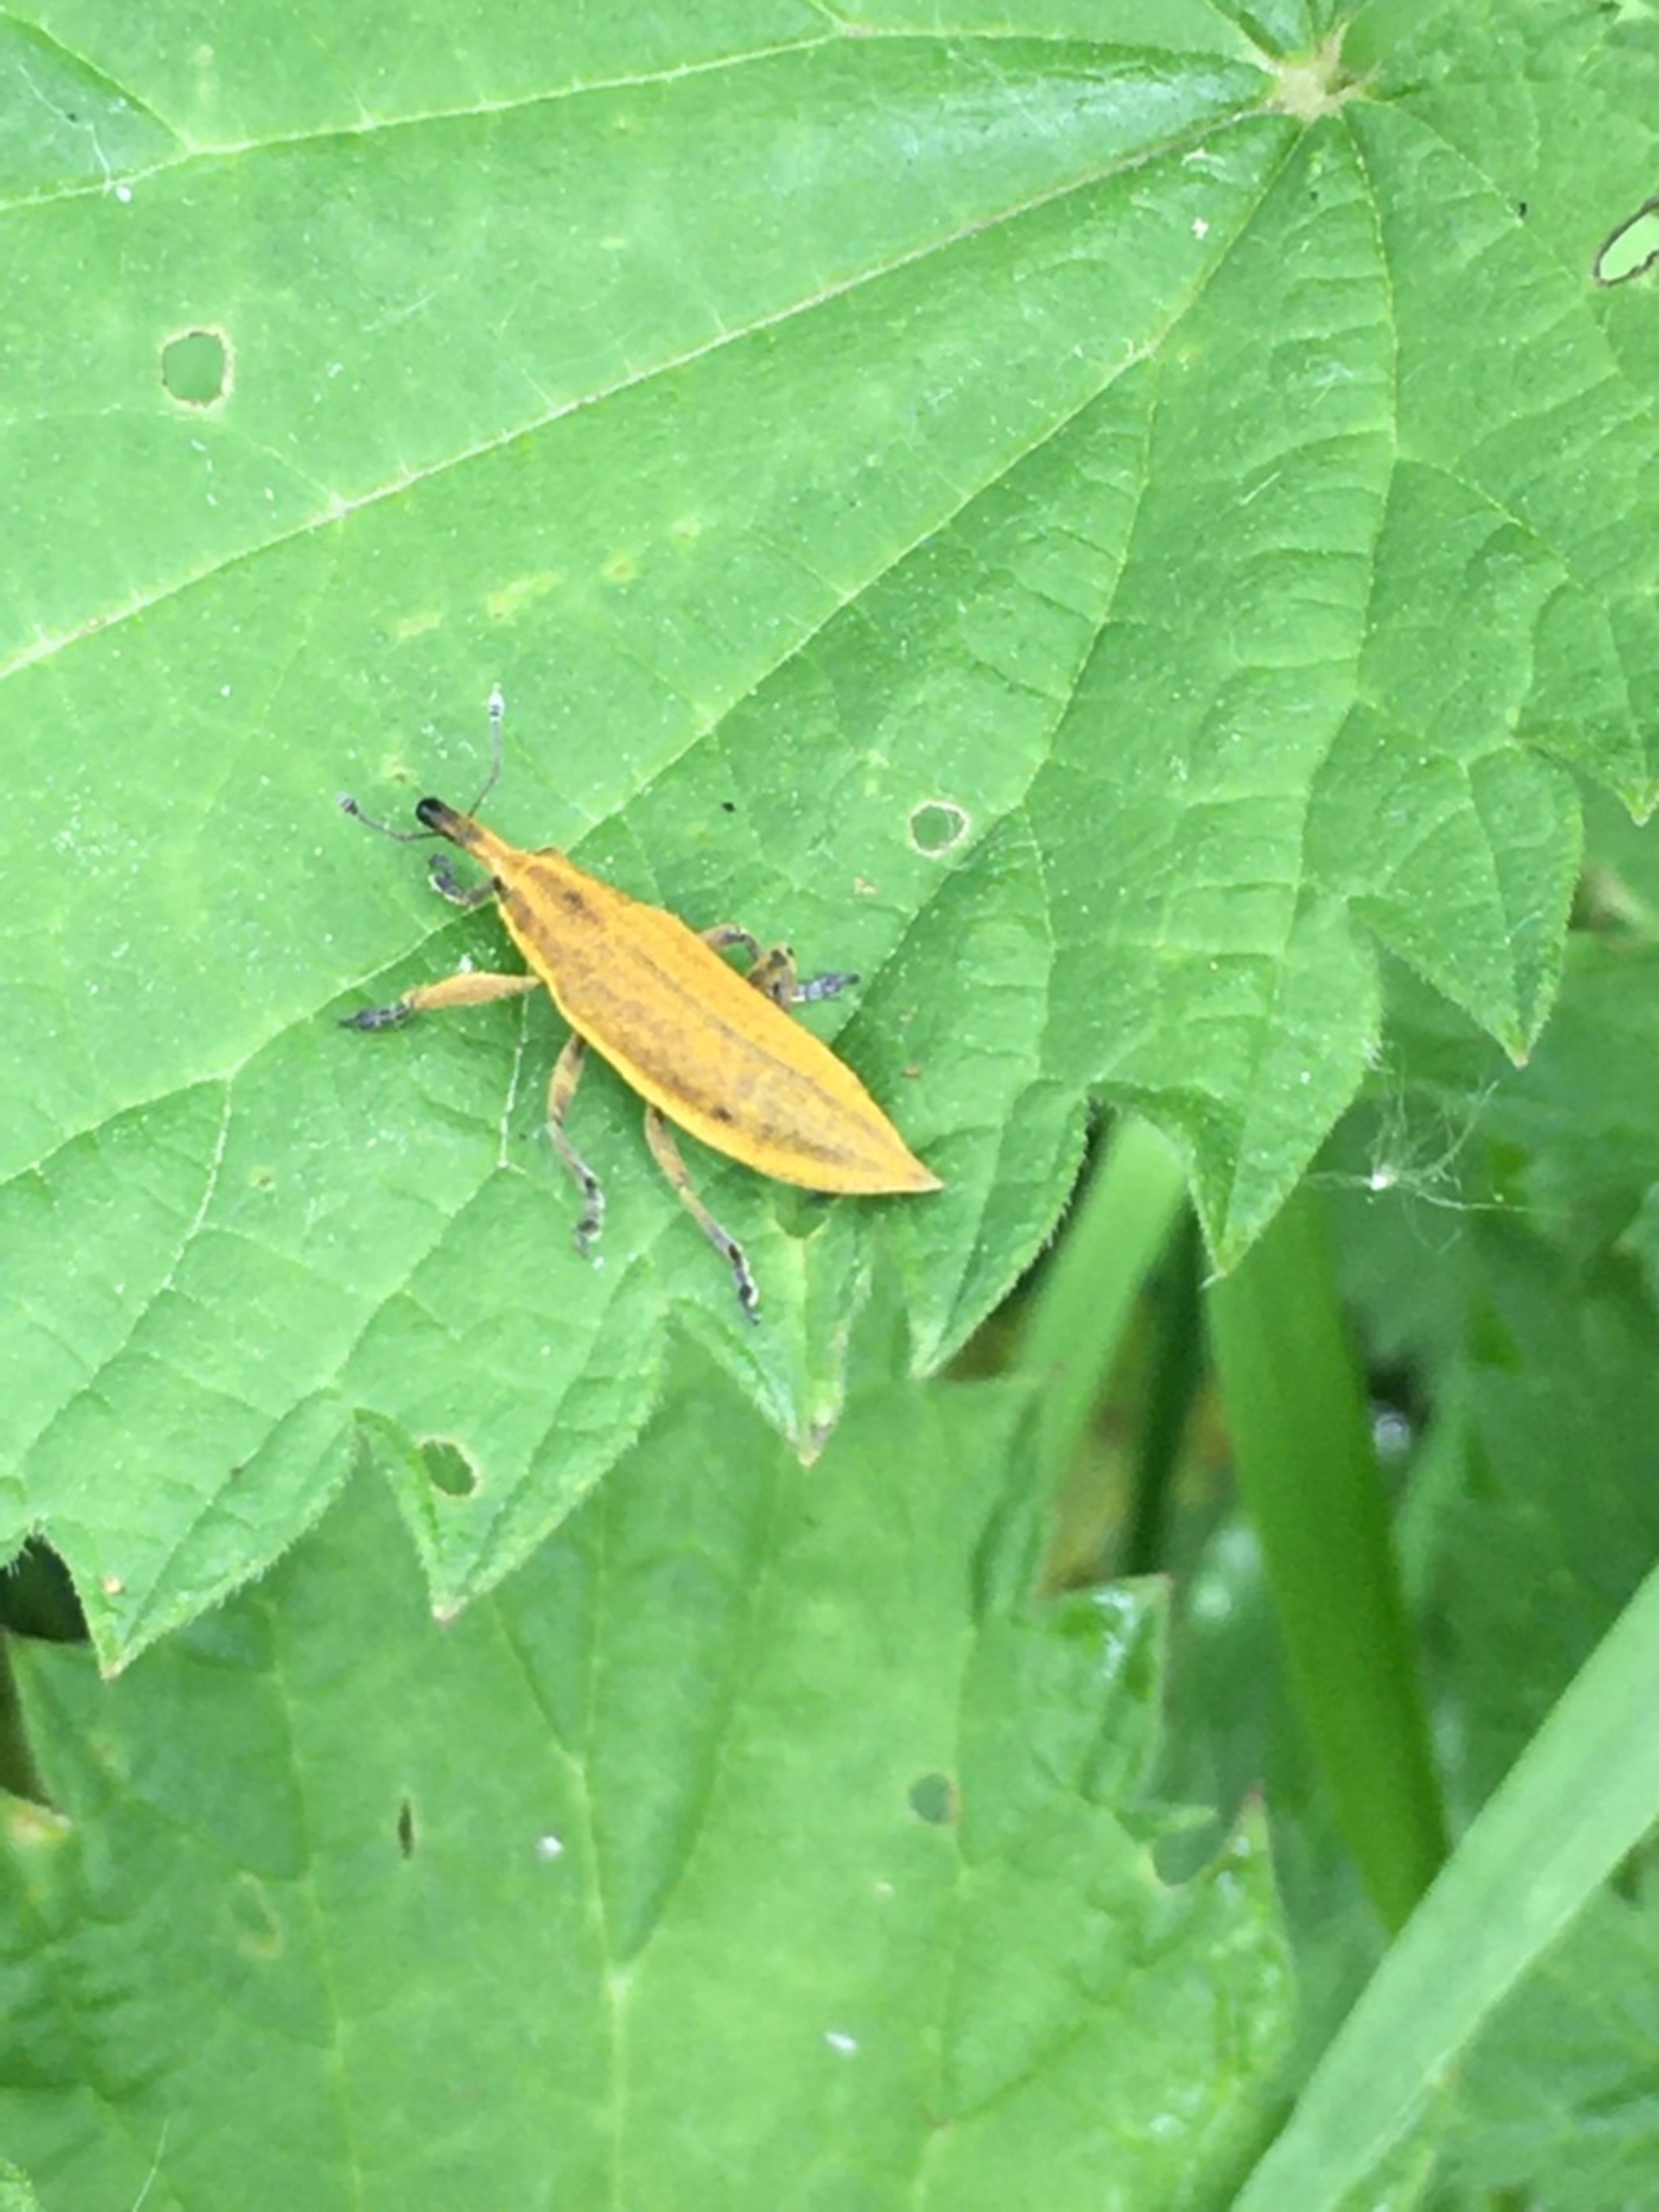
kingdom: Animalia
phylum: Arthropoda
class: Insecta
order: Coleoptera
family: Curculionidae
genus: Lixus
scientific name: Lixus iridis
